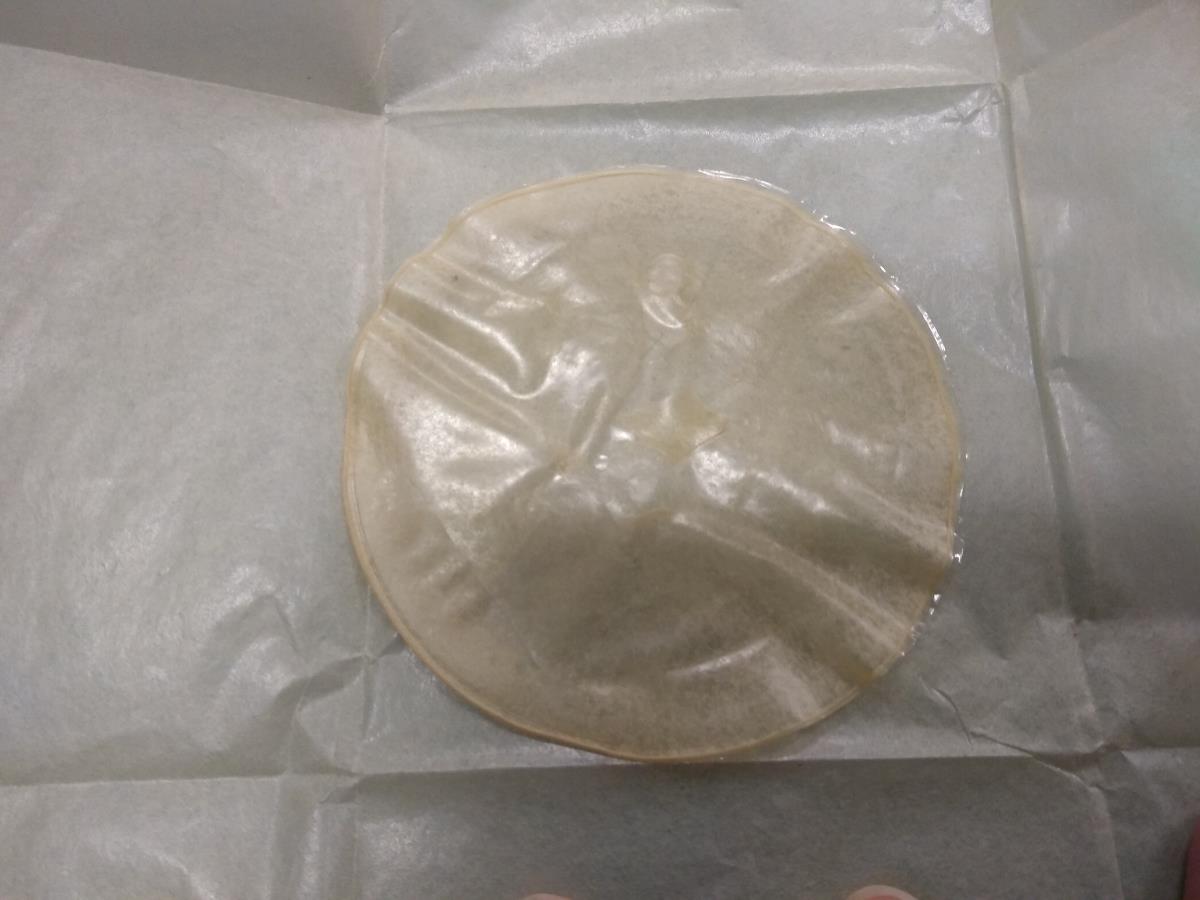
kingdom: Fungi
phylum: Ascomycota
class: Leotiomycetes
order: Helotiales
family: Sclerotiniaceae
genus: Clarireedia
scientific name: Clarireedia homoeocarpa
